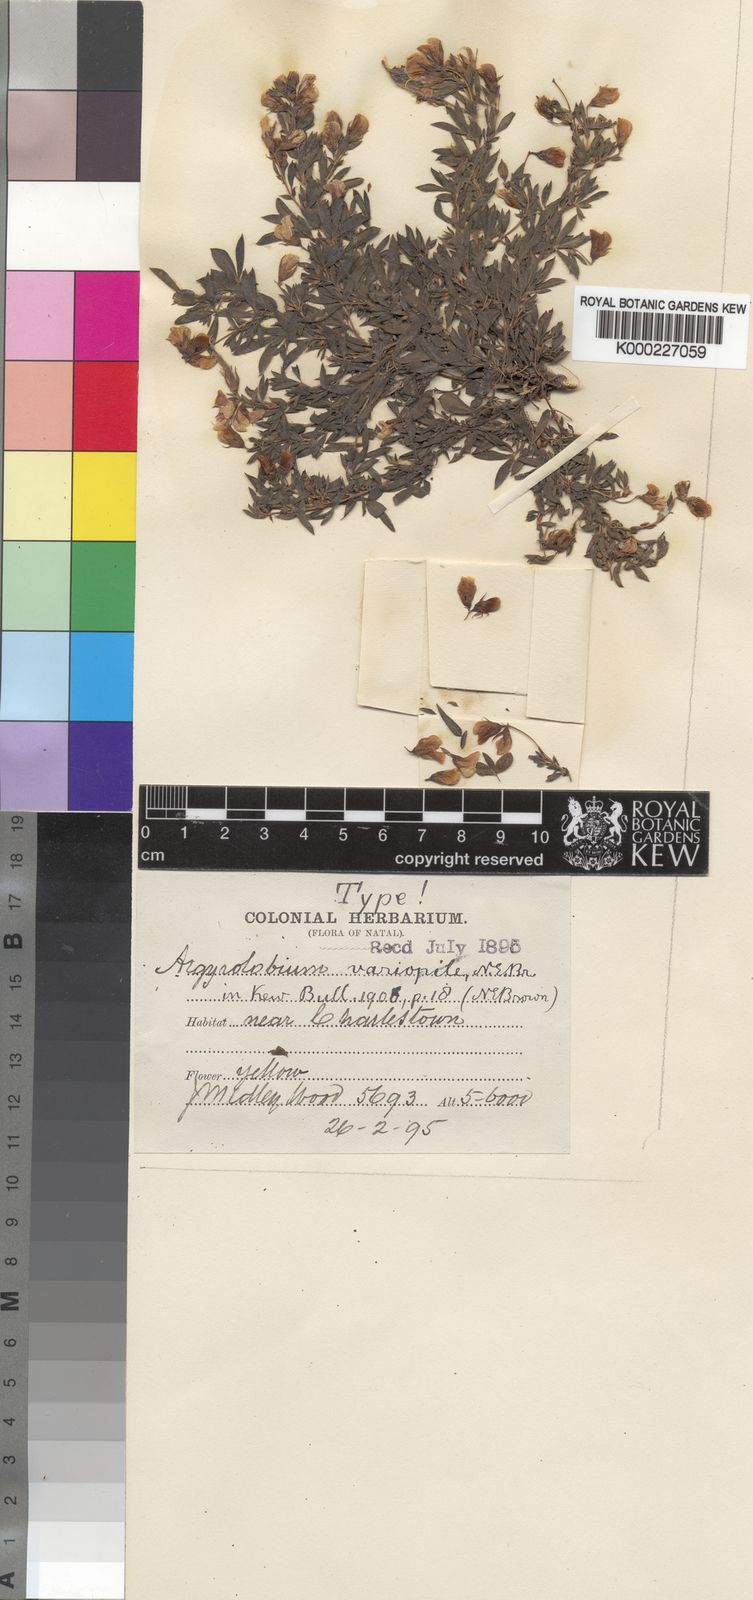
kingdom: Plantae
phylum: Tracheophyta
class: Magnoliopsida
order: Fabales
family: Fabaceae
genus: Argyrolobium
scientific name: Argyrolobium lotoides
